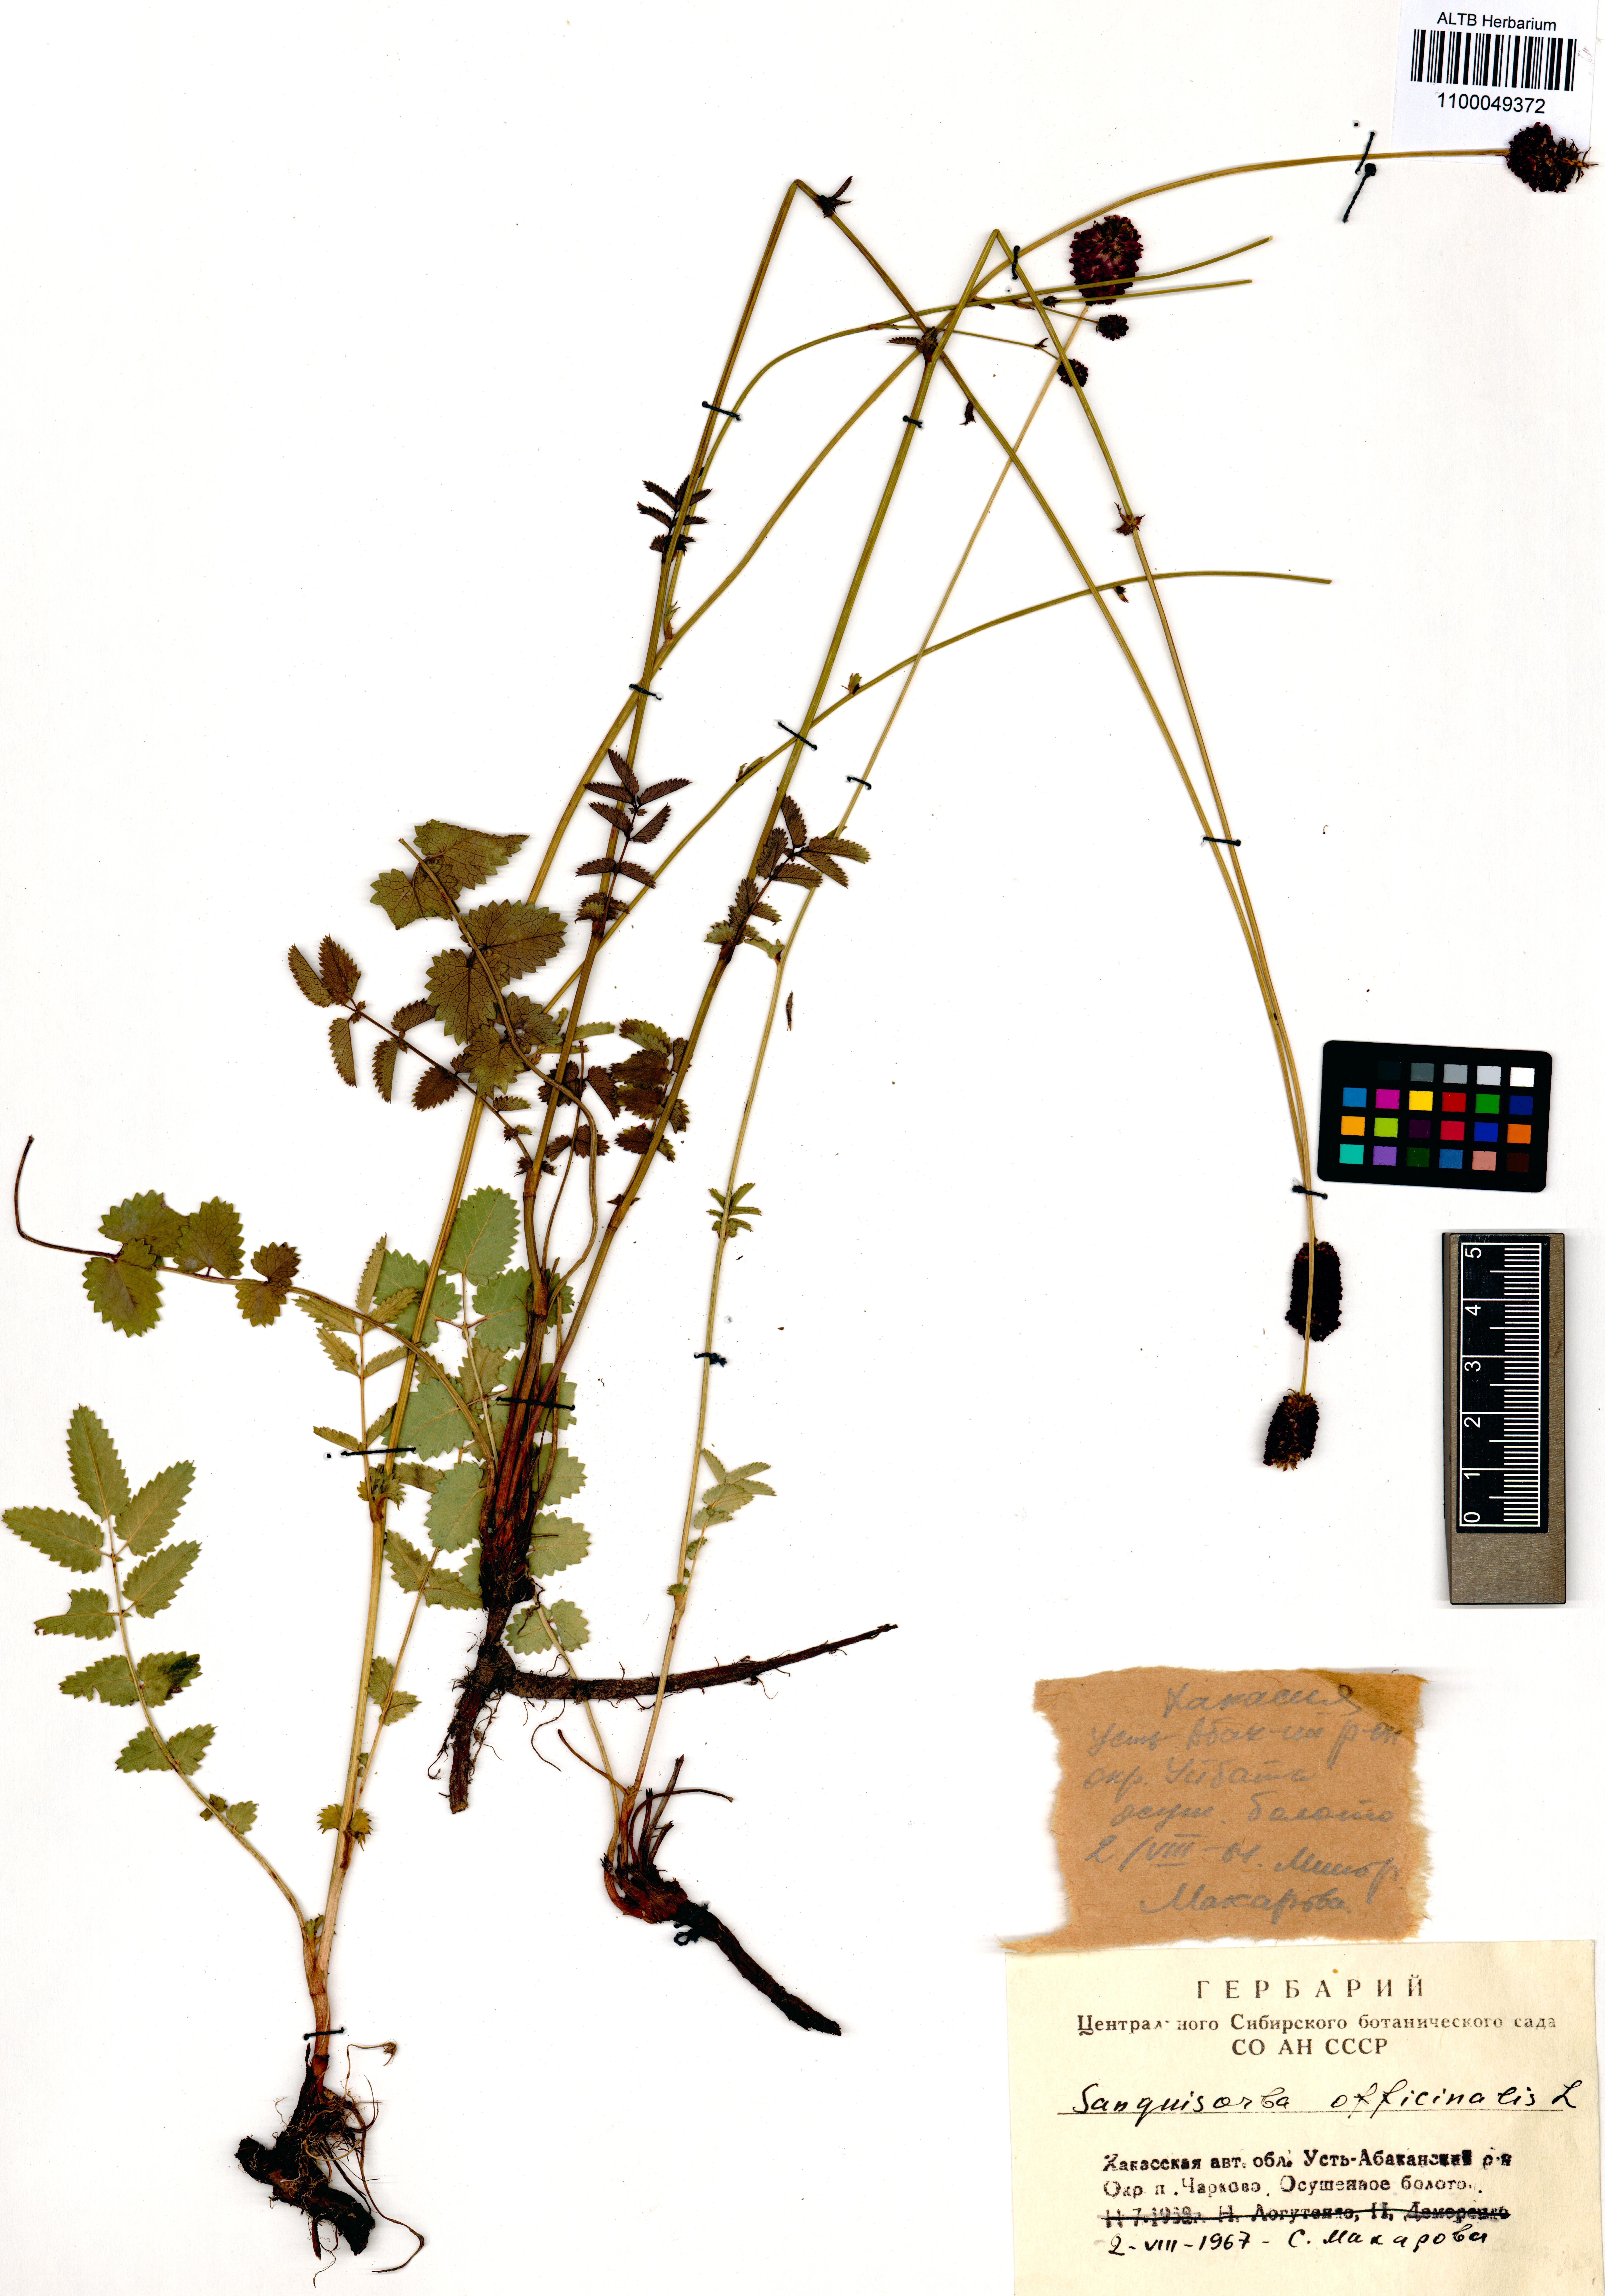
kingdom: Plantae
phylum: Tracheophyta
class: Magnoliopsida
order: Rosales
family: Rosaceae
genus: Sanguisorba
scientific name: Sanguisorba officinalis
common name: Great burnet
